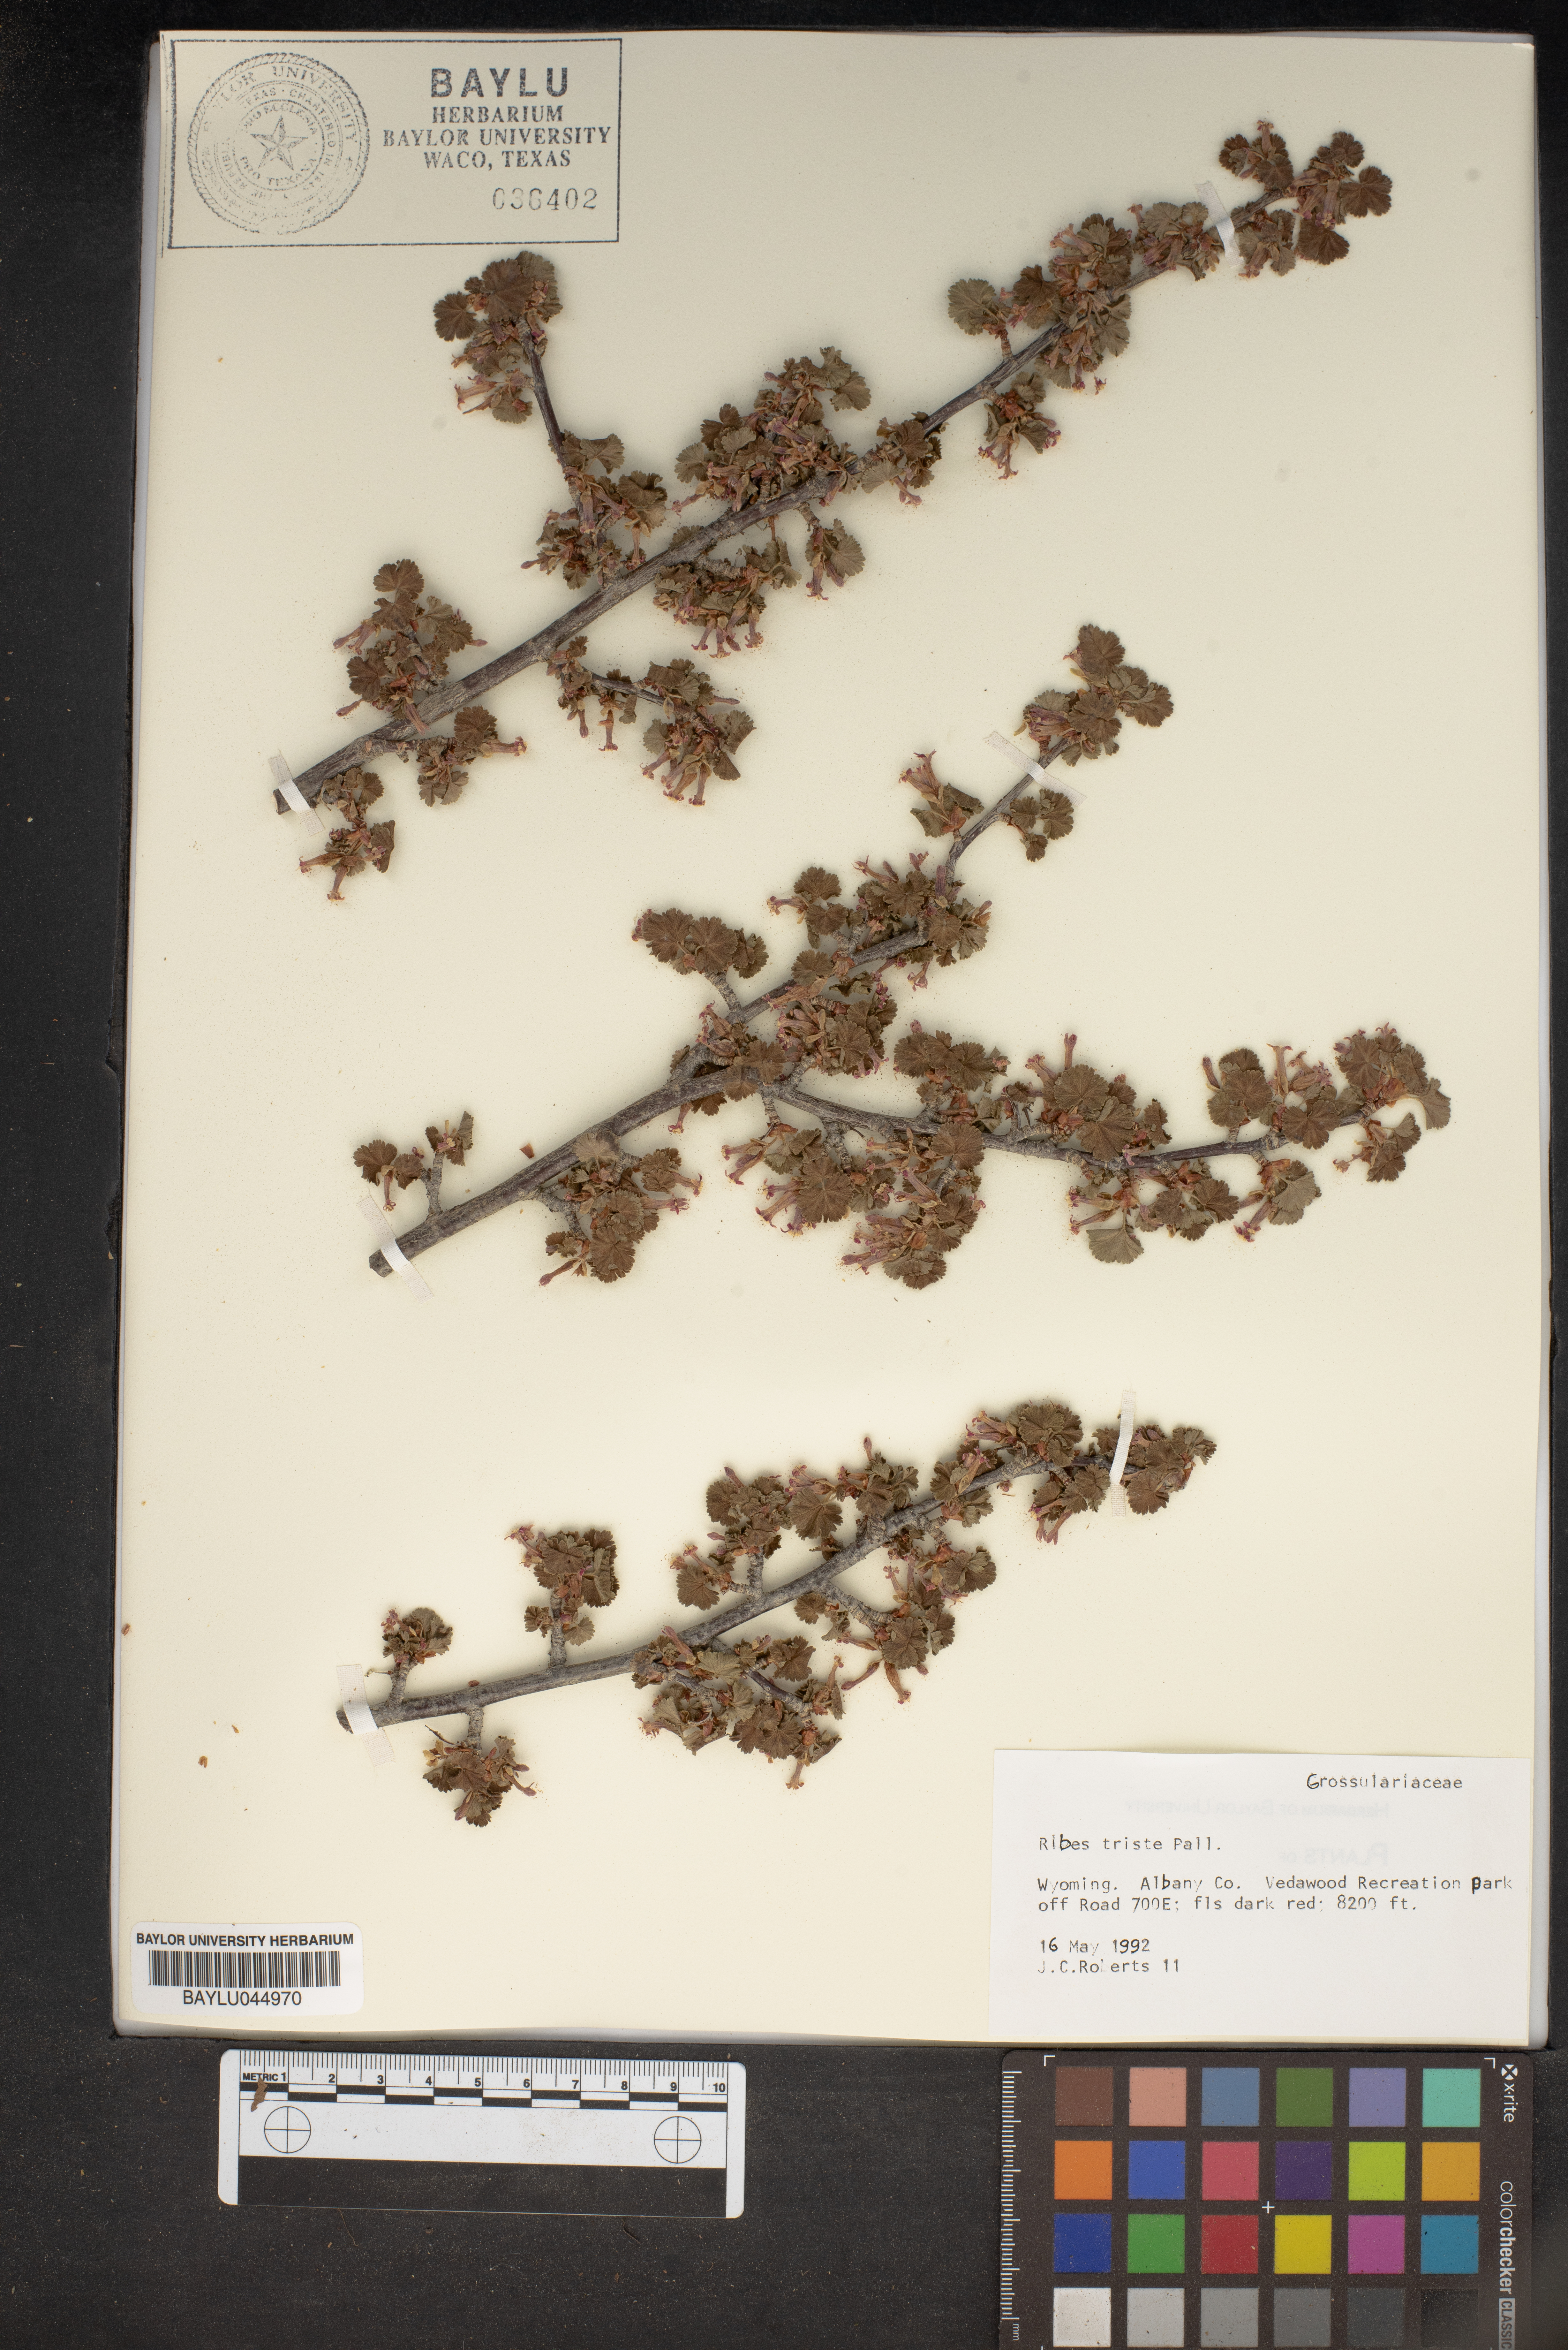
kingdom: Plantae
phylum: Tracheophyta
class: Magnoliopsida
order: Saxifragales
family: Grossulariaceae
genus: Ribes
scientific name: Ribes triste
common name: Swamp red currant
